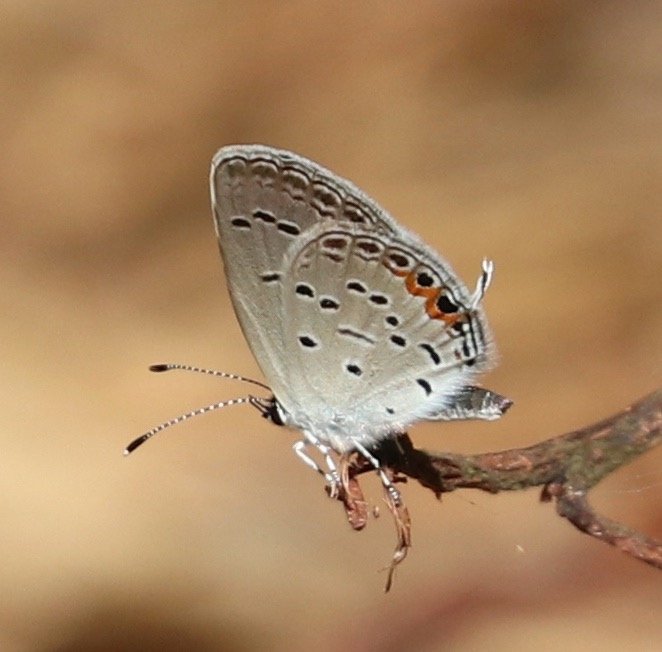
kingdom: Animalia
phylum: Arthropoda
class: Insecta
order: Lepidoptera
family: Lycaenidae
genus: Elkalyce
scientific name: Elkalyce comyntas
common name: Eastern Tailed-Blue
